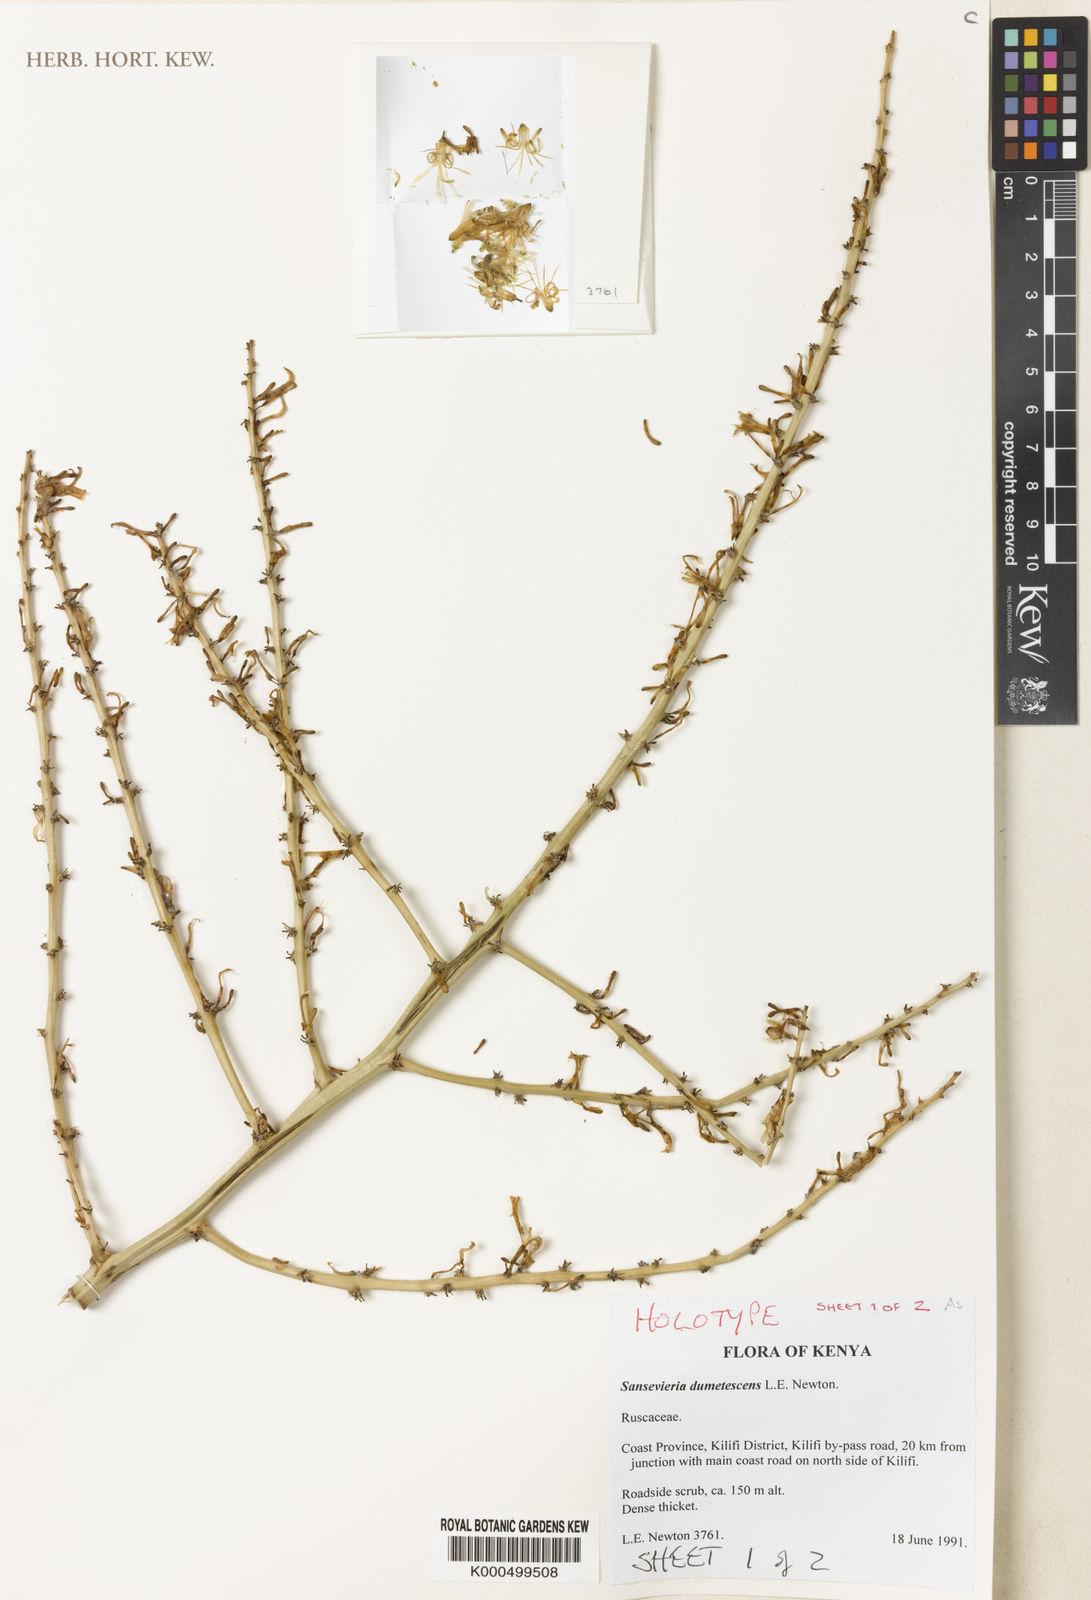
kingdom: Plantae
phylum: Tracheophyta
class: Liliopsida
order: Asparagales
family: Asparagaceae
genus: Dracaena
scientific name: Dracaena dumetescens
